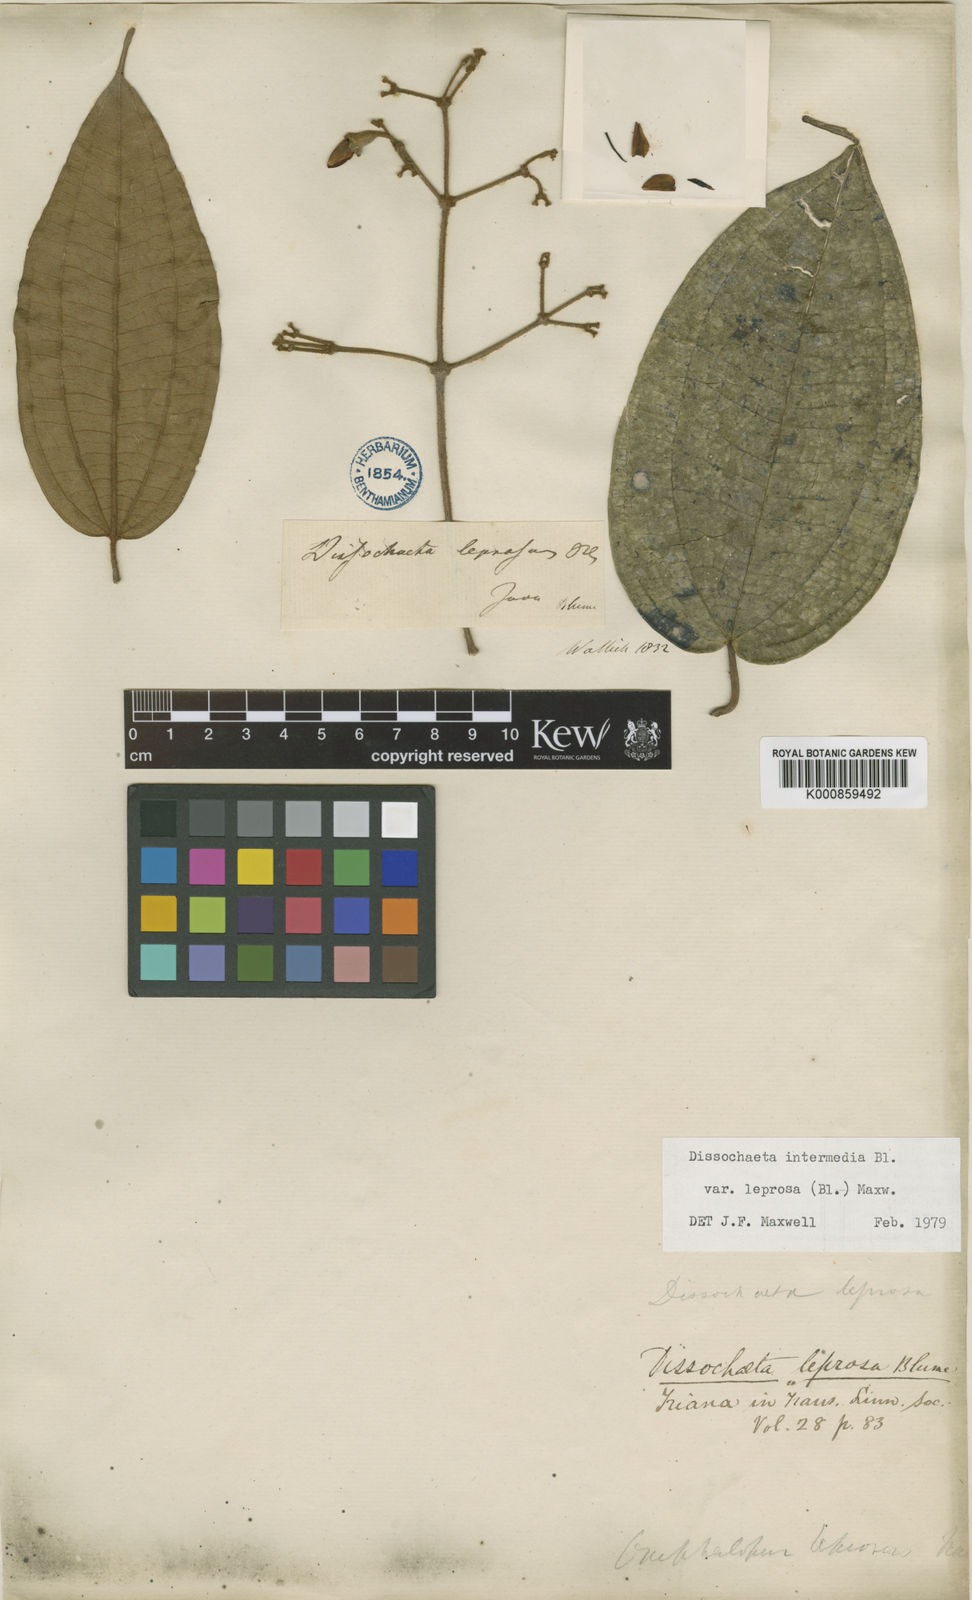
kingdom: Plantae
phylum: Tracheophyta
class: Magnoliopsida
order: Myrtales
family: Melastomataceae
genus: Dissochaeta
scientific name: Dissochaeta leprosa
